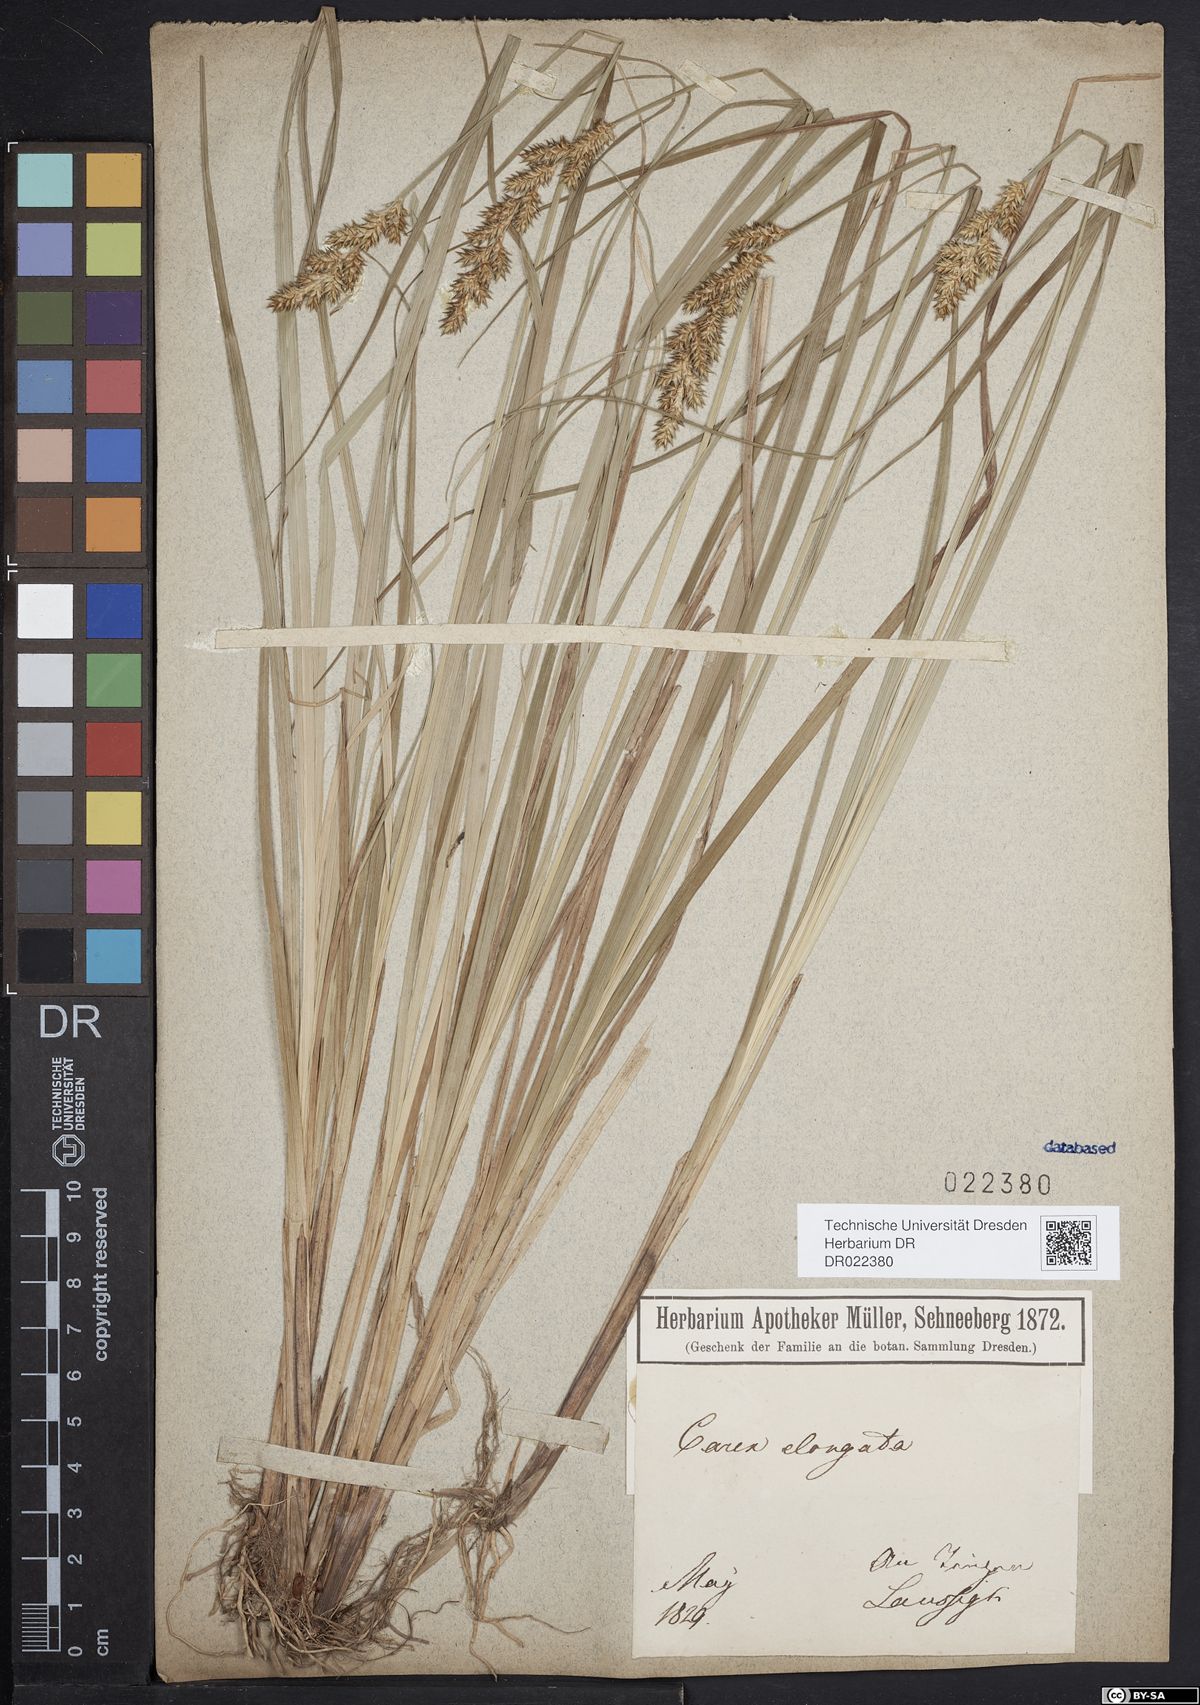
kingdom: Plantae
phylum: Tracheophyta
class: Liliopsida
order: Poales
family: Cyperaceae
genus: Carex
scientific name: Carex elongata
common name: Elongated sedge
